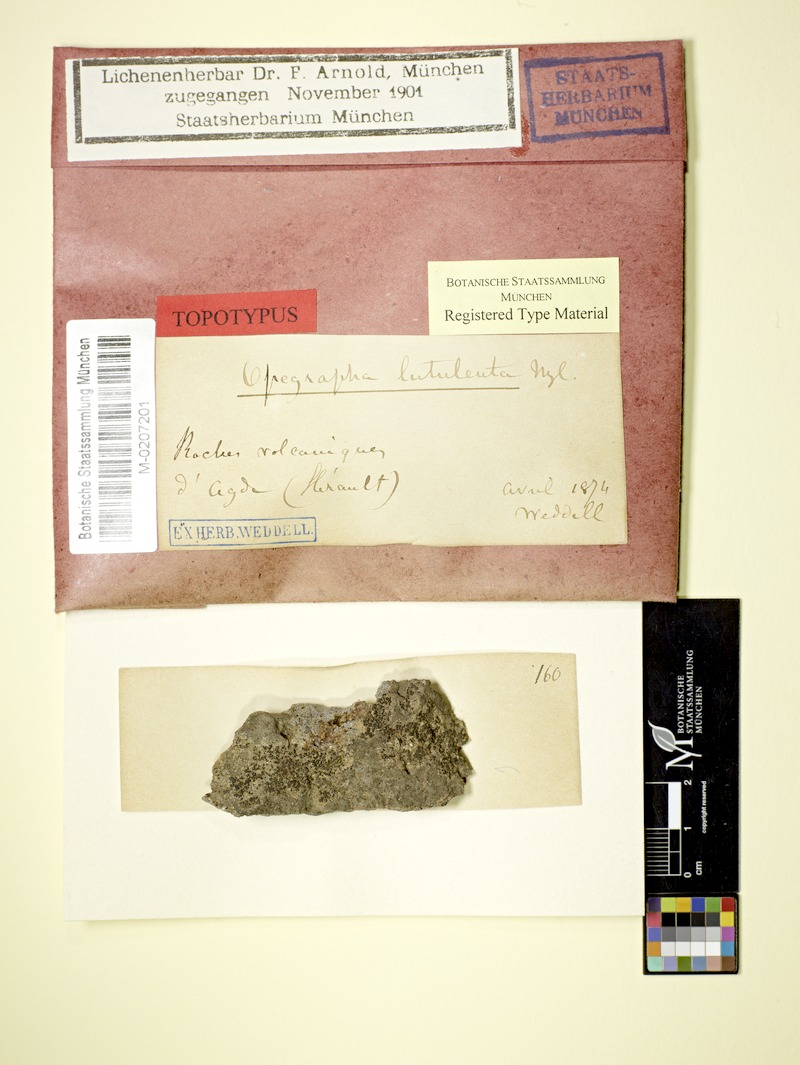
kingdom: Fungi
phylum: Ascomycota
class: Arthoniomycetes
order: Arthoniales
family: Lecanographaceae
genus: Alyxoria
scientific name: Alyxoria lutulenta
